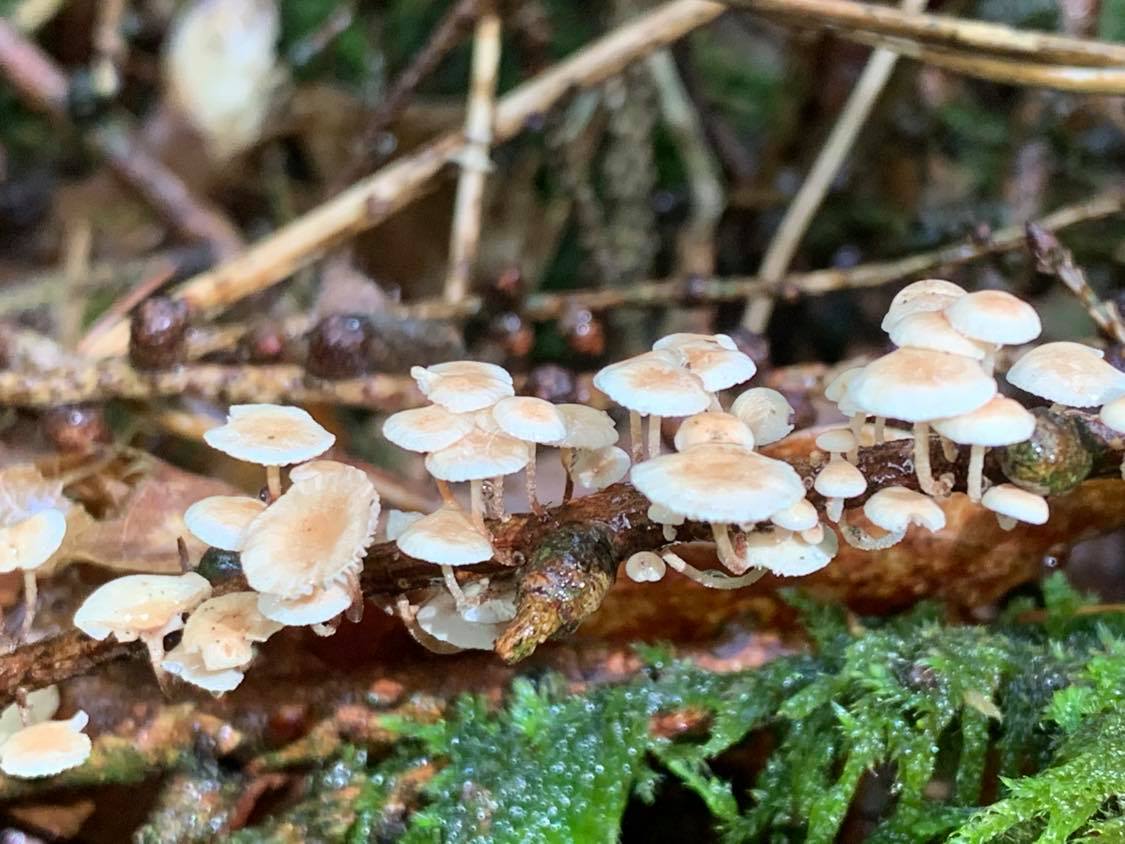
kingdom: Fungi
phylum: Basidiomycota
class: Agaricomycetes
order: Agaricales
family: Omphalotaceae
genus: Collybiopsis
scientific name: Collybiopsis ramealis
